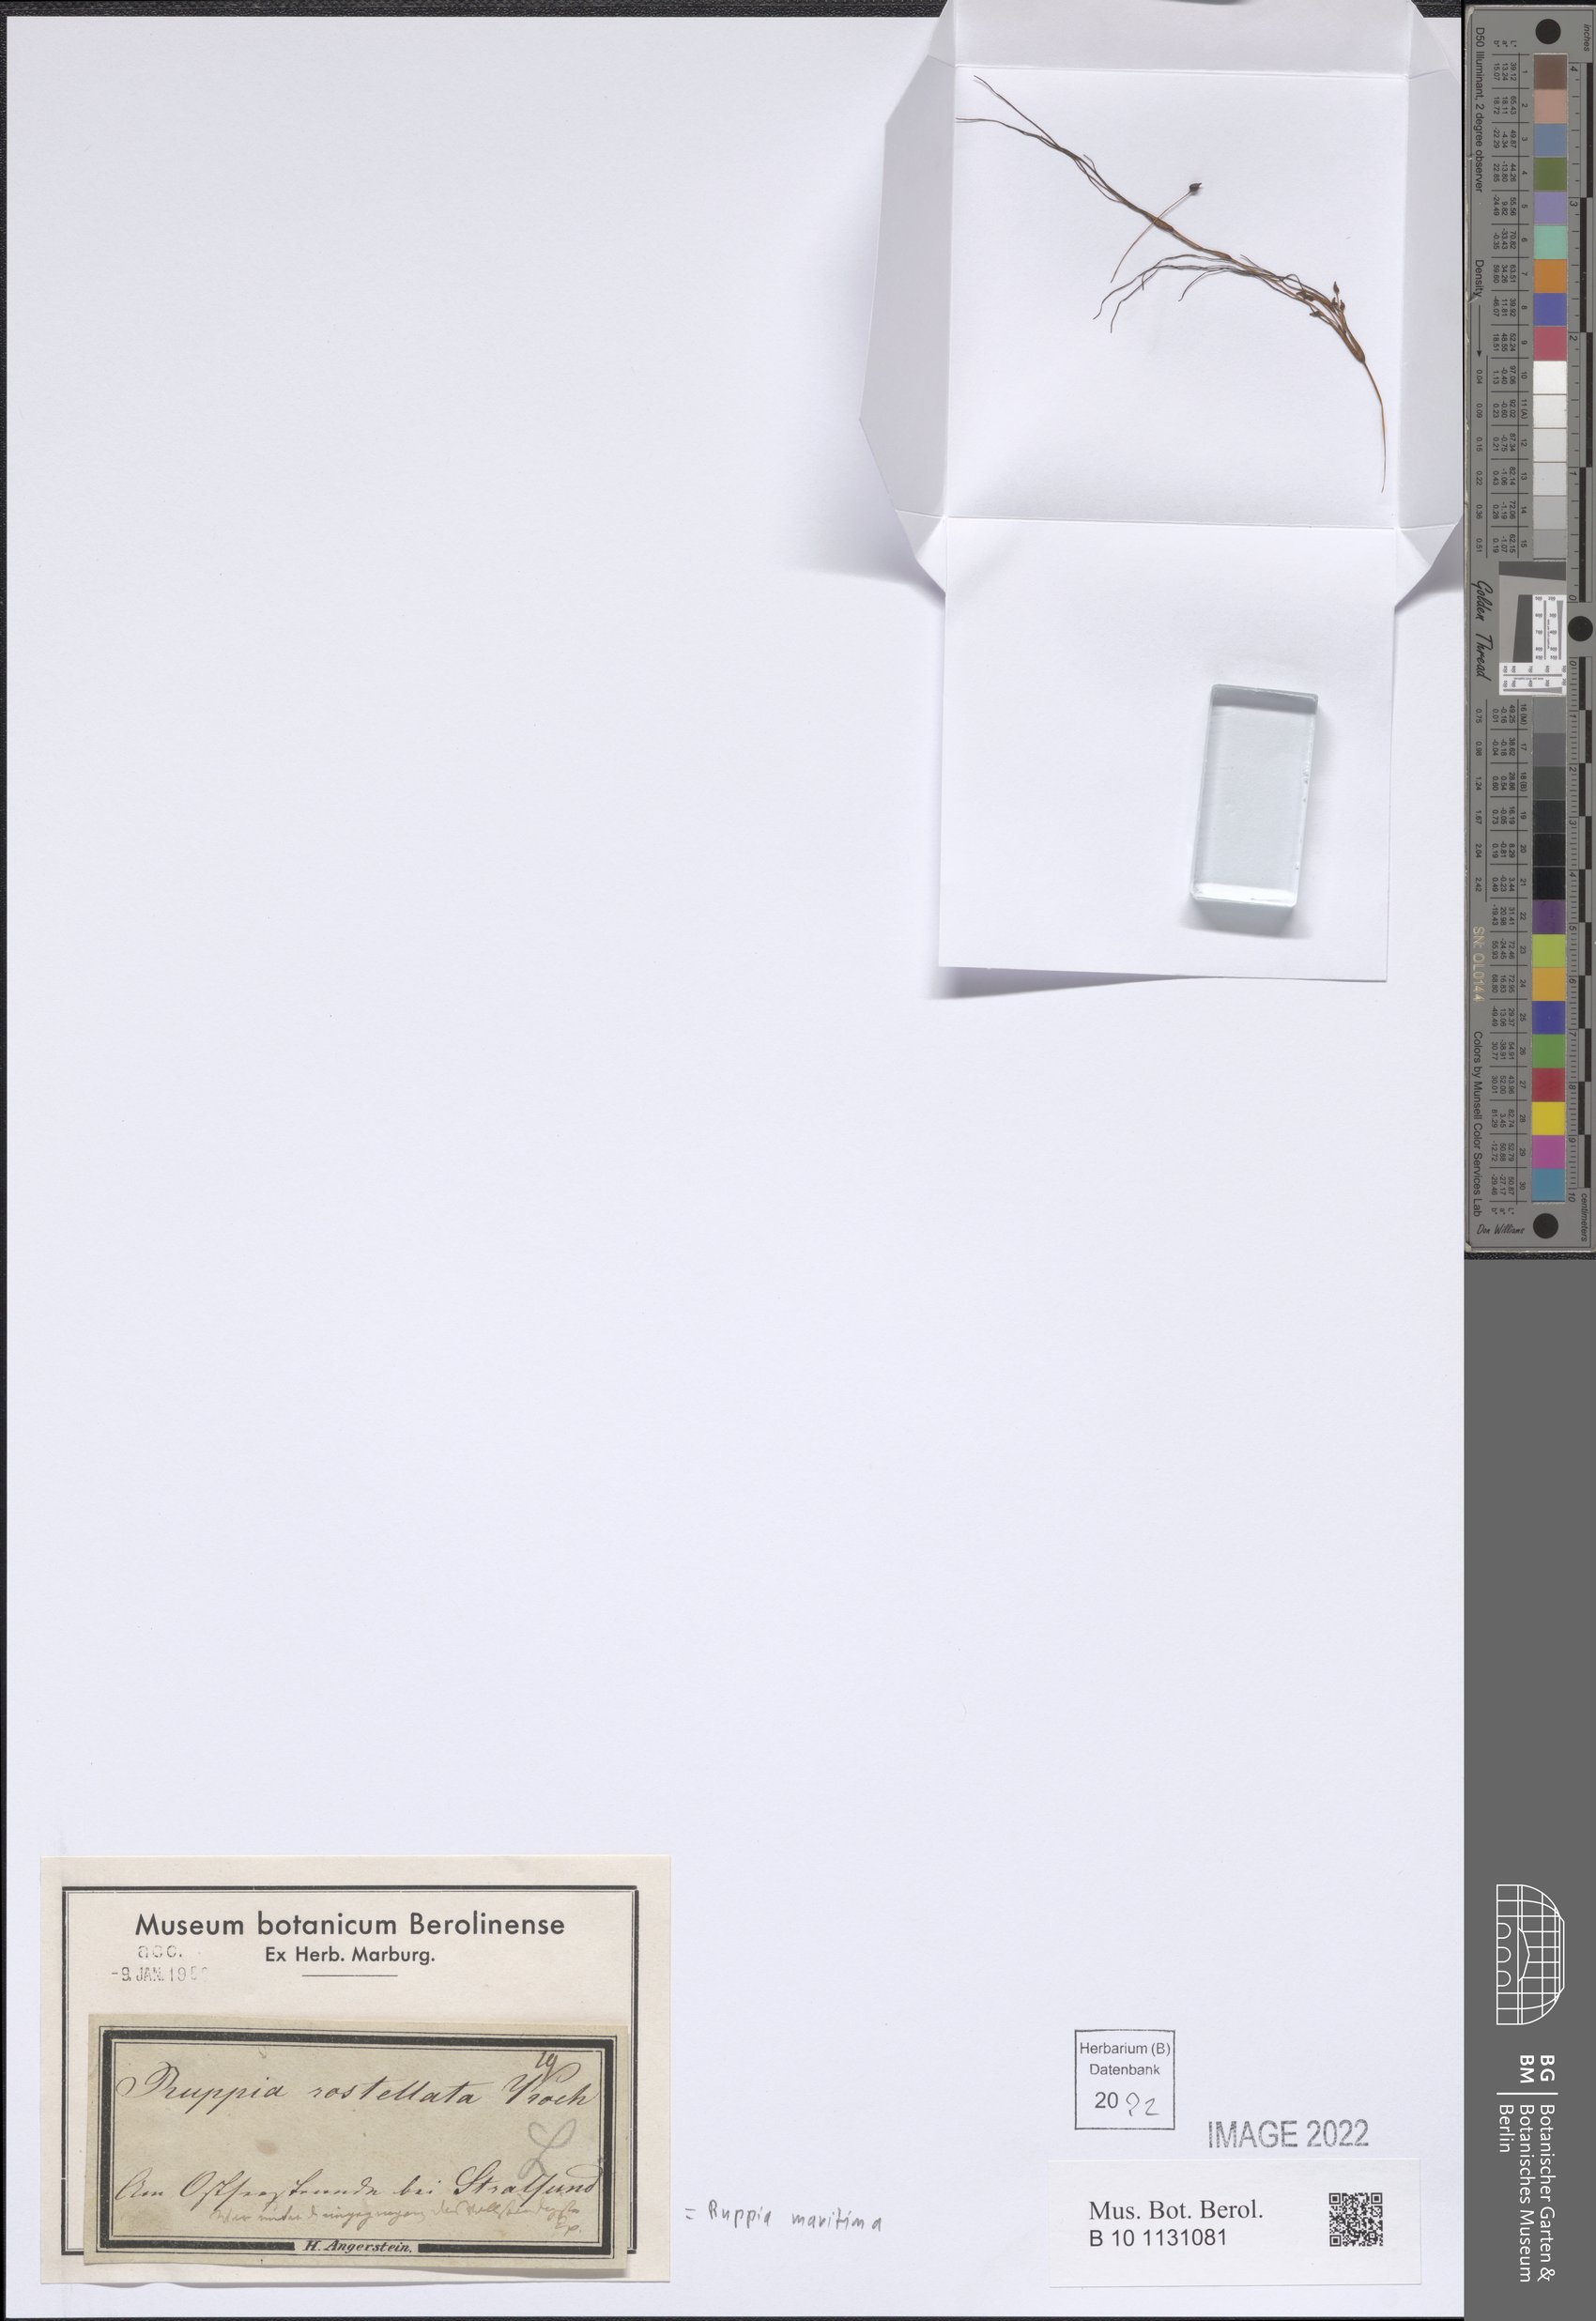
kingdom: Plantae
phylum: Tracheophyta
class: Liliopsida
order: Alismatales
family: Ruppiaceae
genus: Ruppia
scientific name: Ruppia maritima
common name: Beaked tasselweed
